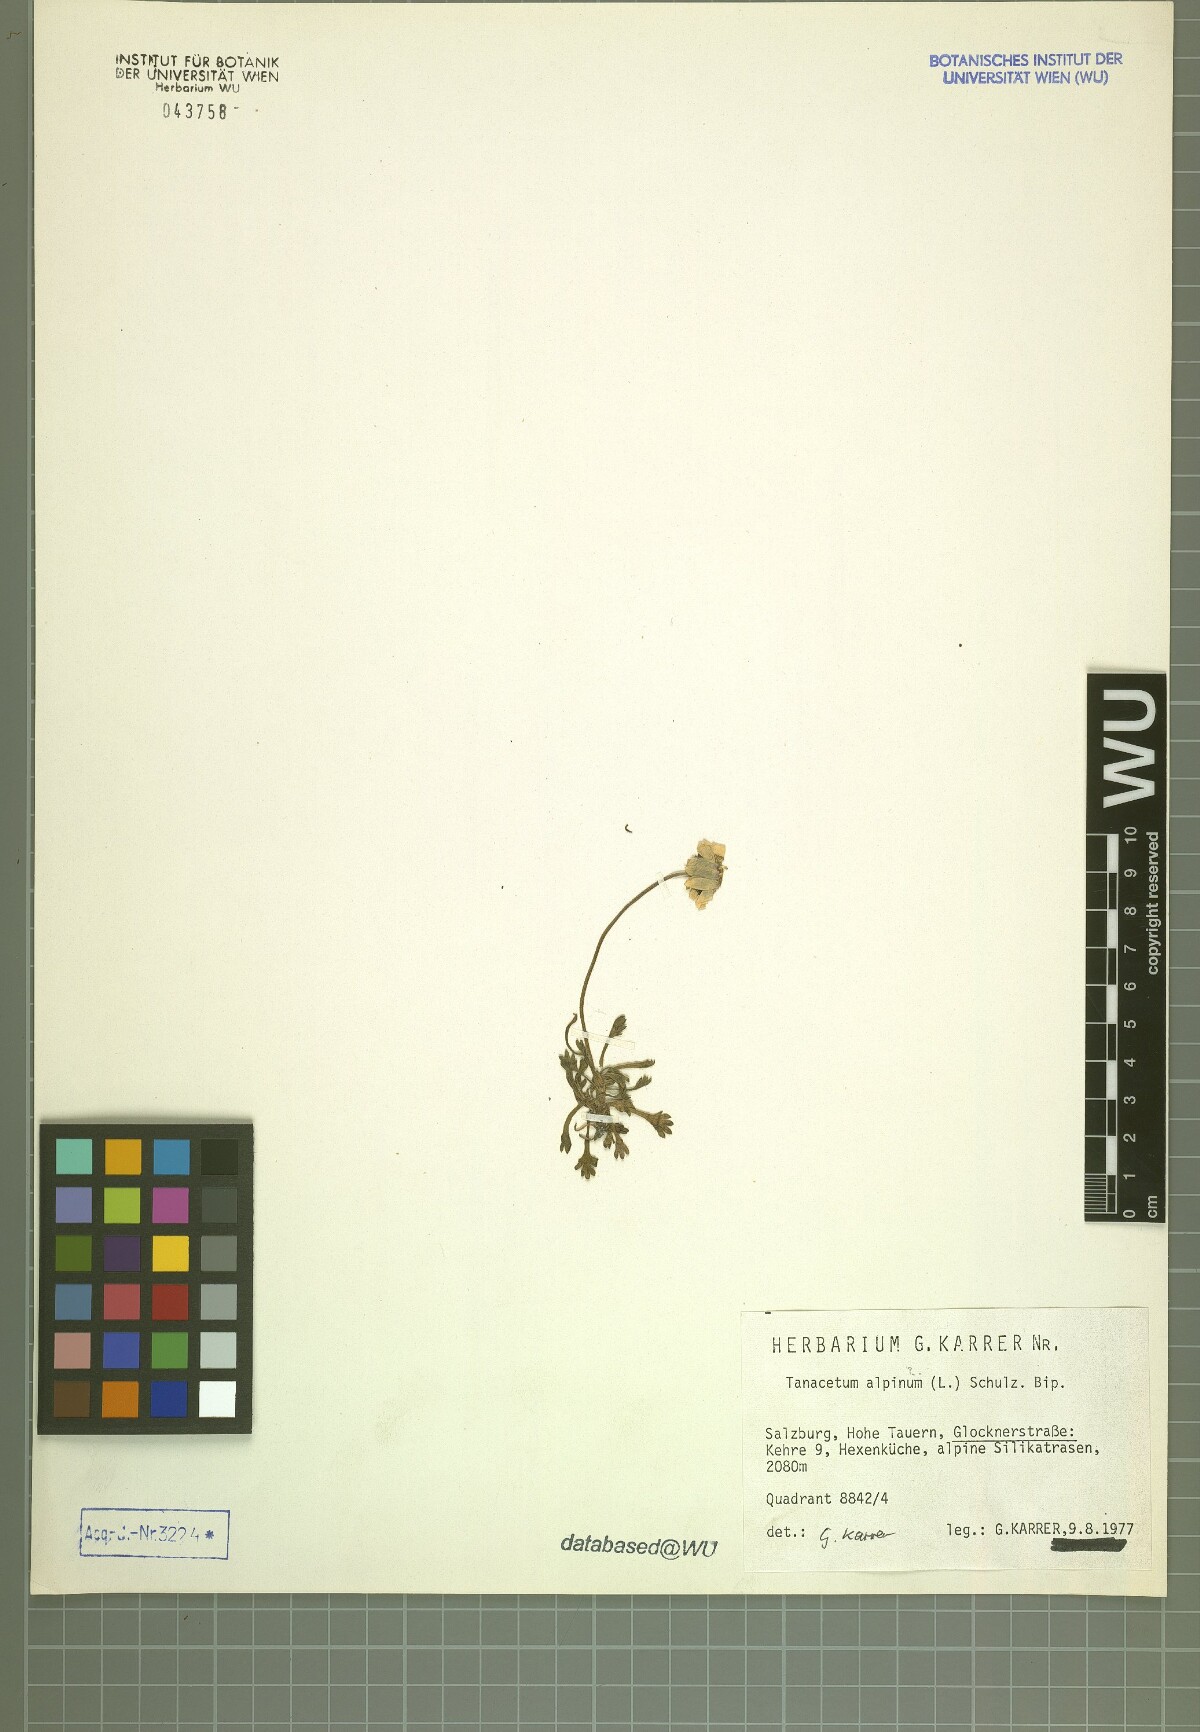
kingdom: Plantae
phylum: Tracheophyta
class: Magnoliopsida
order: Asterales
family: Asteraceae
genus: Leucanthemopsis
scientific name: Leucanthemopsis alpina
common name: Alpine moon daisy
